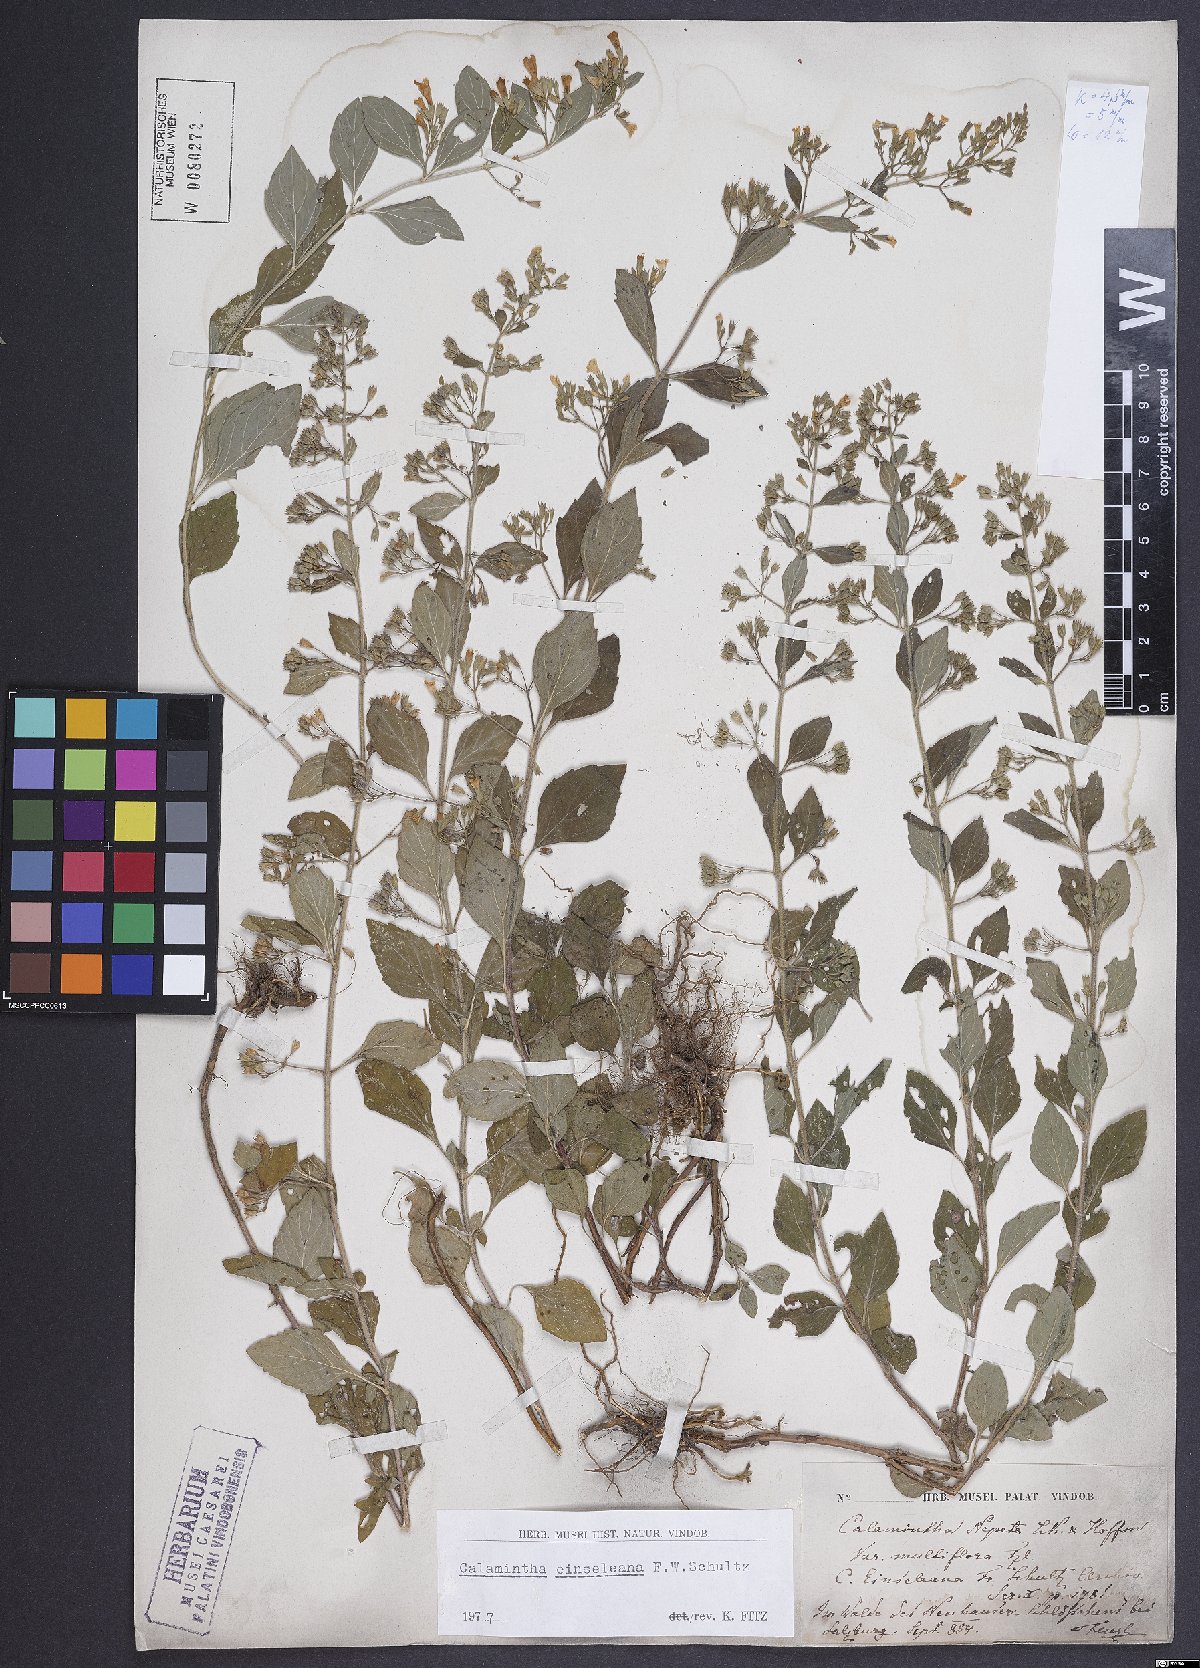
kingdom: Plantae
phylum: Tracheophyta
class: Magnoliopsida
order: Lamiales
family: Lamiaceae
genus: Clinopodium
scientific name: Clinopodium nepeta
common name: Lesser calamint
